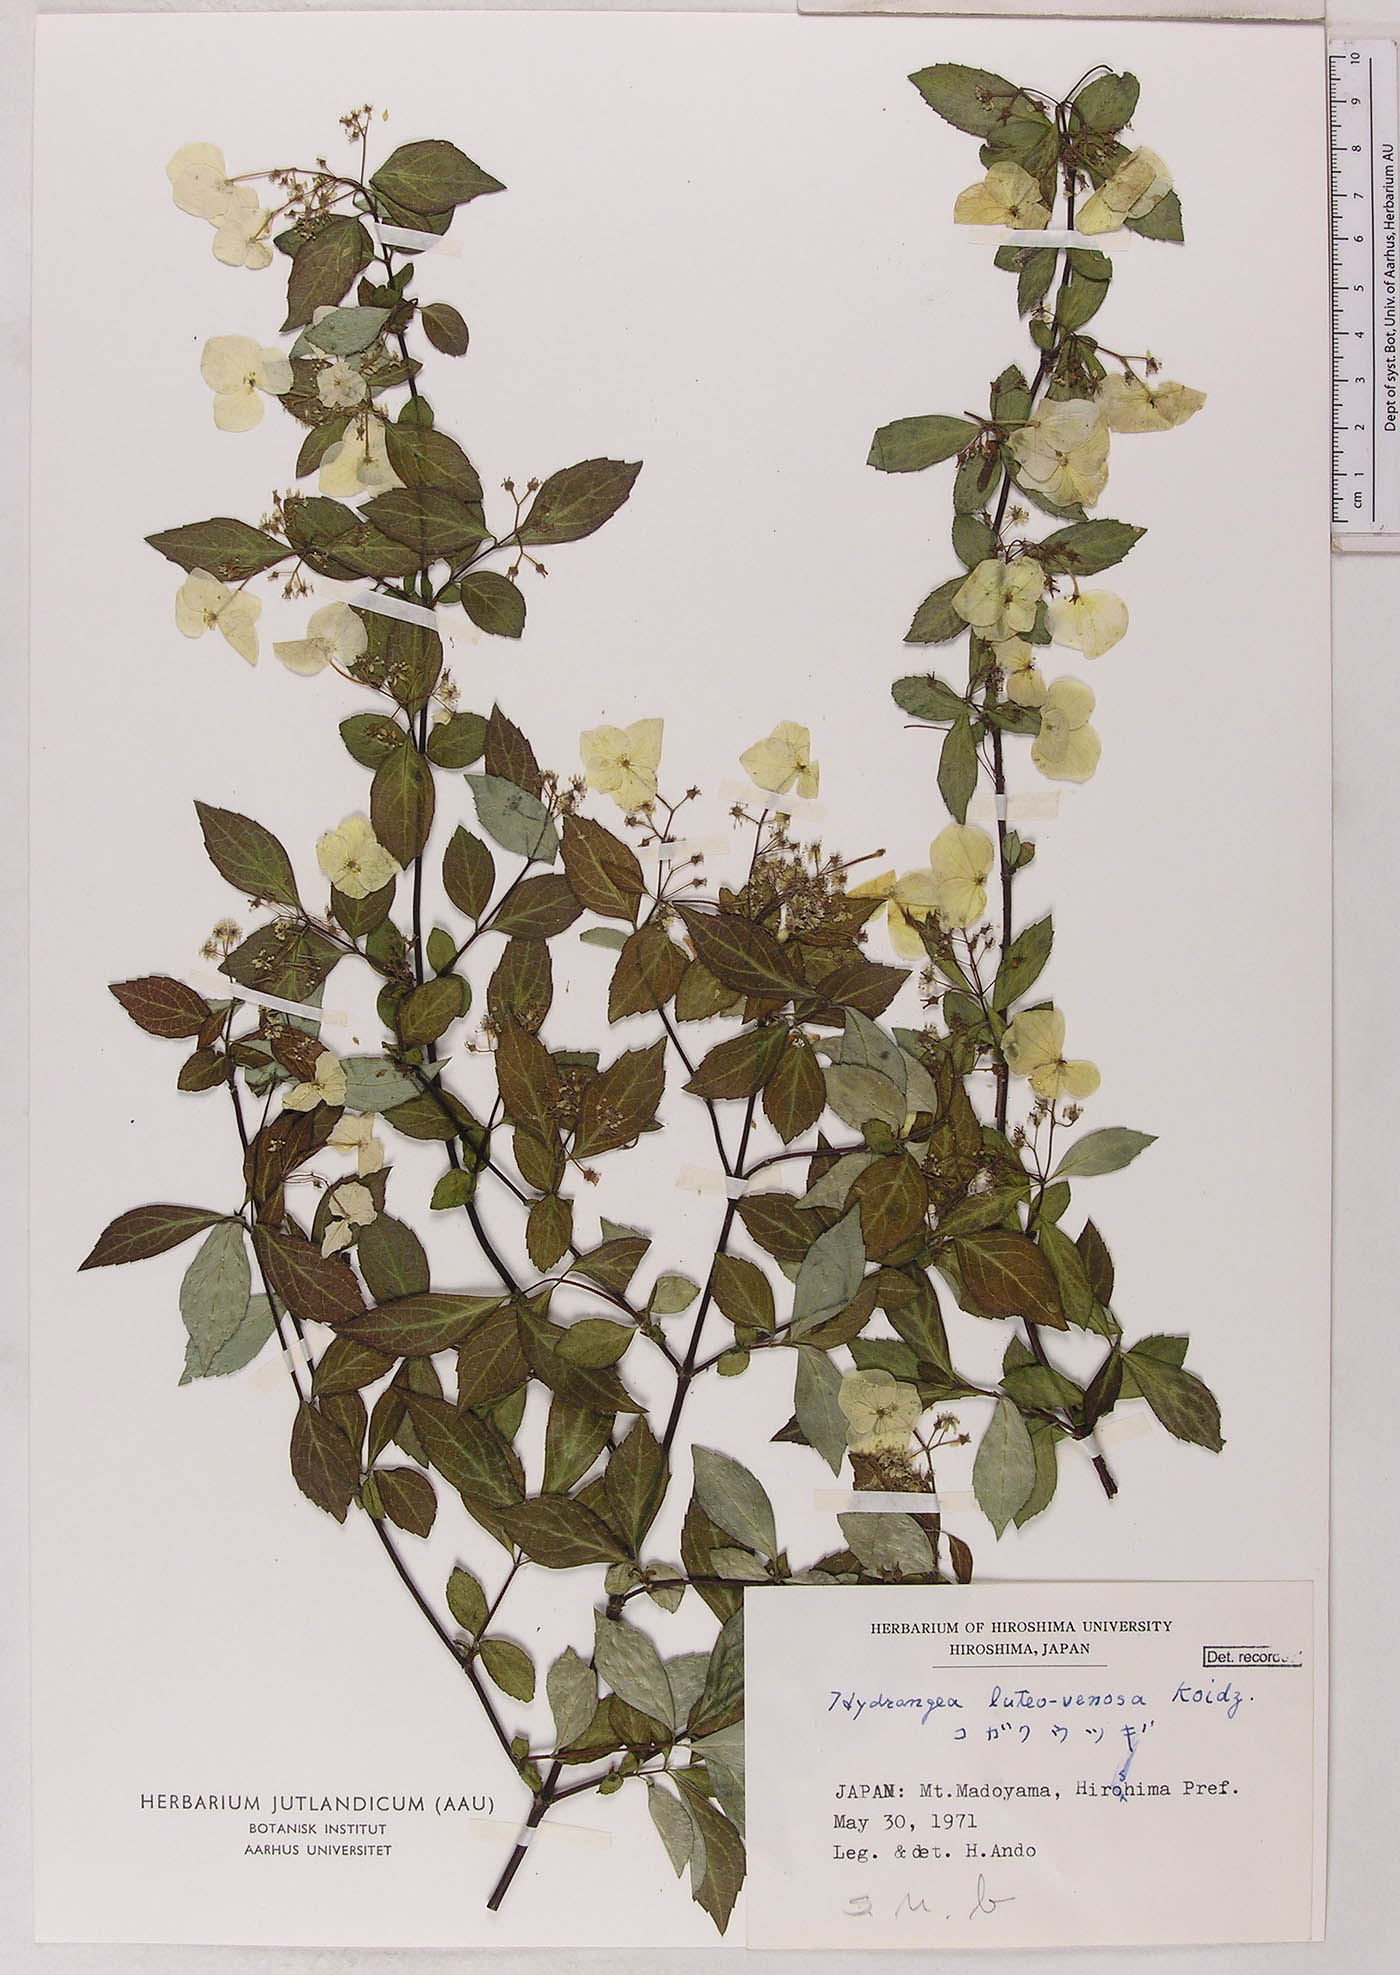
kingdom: Plantae
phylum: Tracheophyta
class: Magnoliopsida
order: Cornales
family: Hydrangeaceae
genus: Hydrangea
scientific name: Hydrangea luteovenosa
